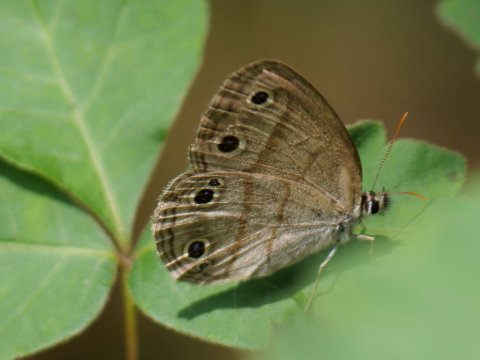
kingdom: Animalia
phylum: Arthropoda
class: Insecta
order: Lepidoptera
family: Nymphalidae
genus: Euptychia
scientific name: Euptychia cymela
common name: Little Wood Satyr
